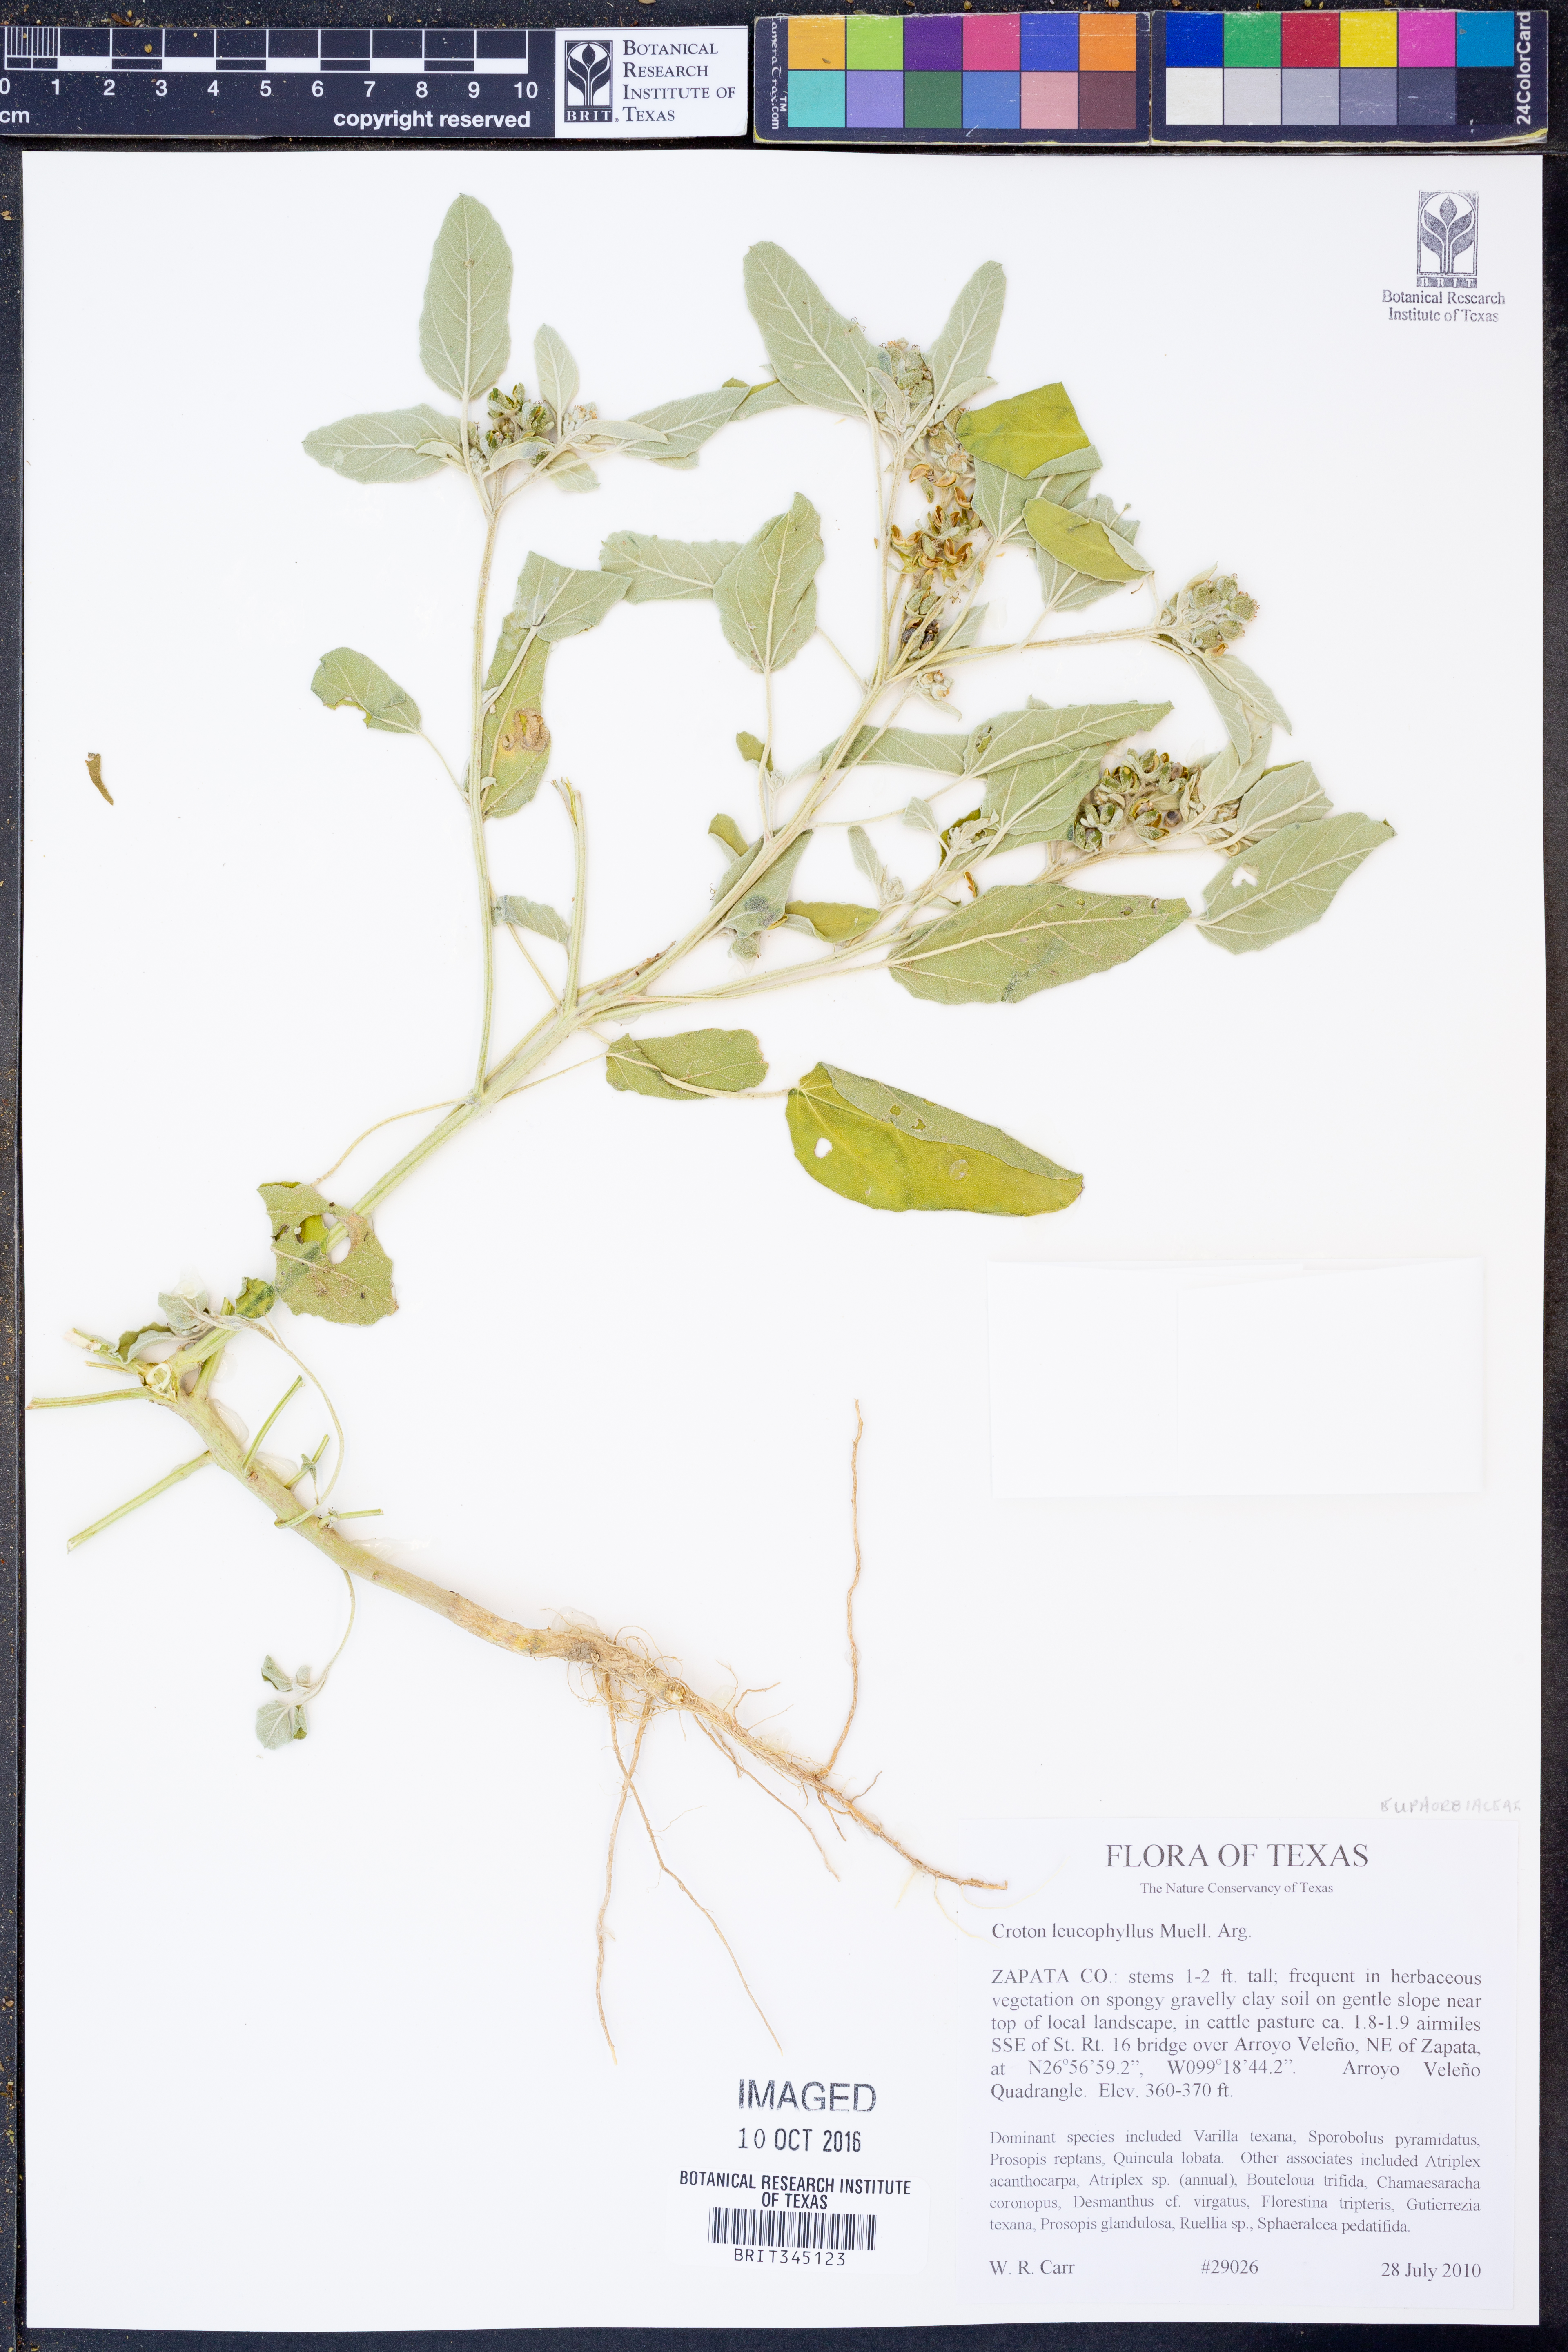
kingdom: Plantae
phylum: Tracheophyta
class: Magnoliopsida
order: Malpighiales
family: Euphorbiaceae
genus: Croton
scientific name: Croton leucophyllus
